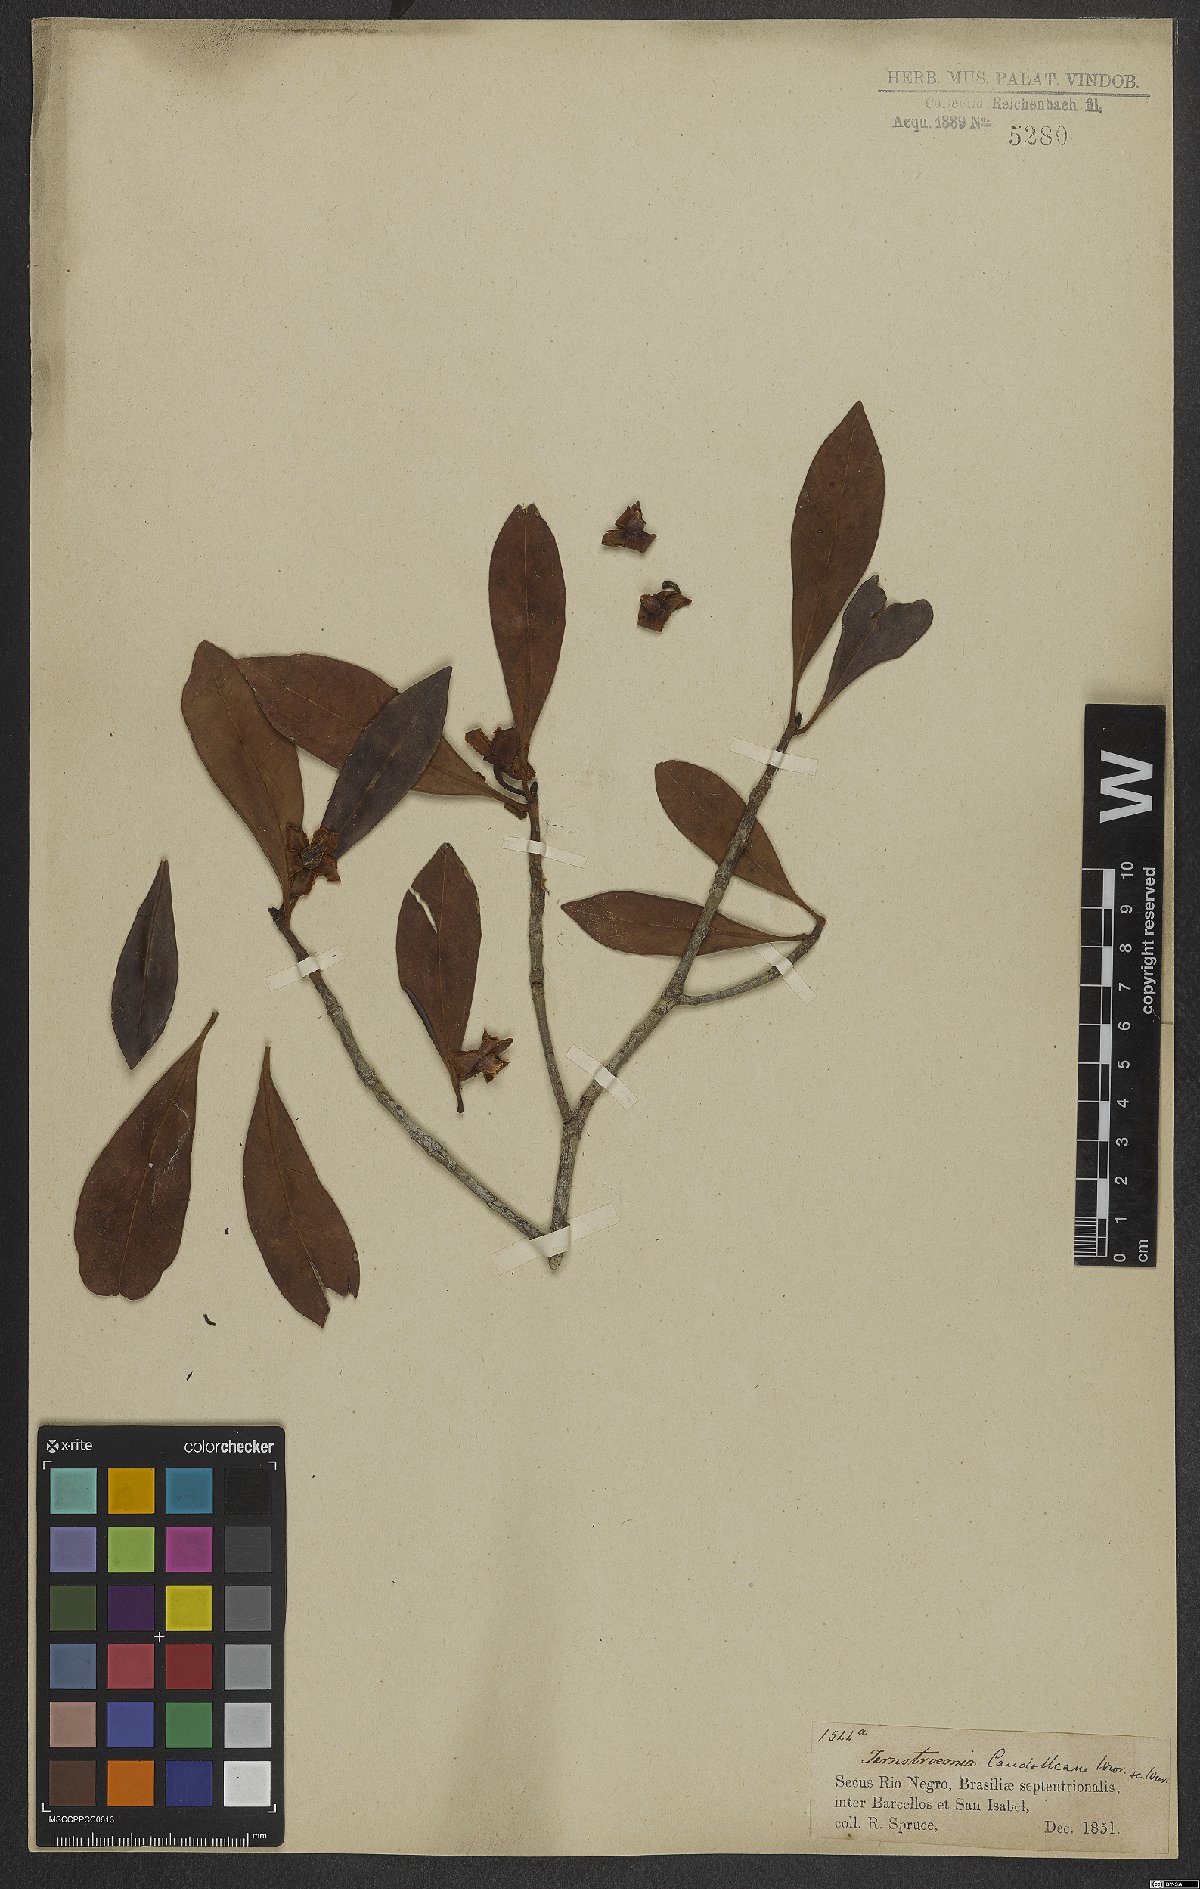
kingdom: Plantae
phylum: Tracheophyta
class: Magnoliopsida
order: Ericales
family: Pentaphylacaceae
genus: Ternstroemia
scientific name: Ternstroemia candolleana
